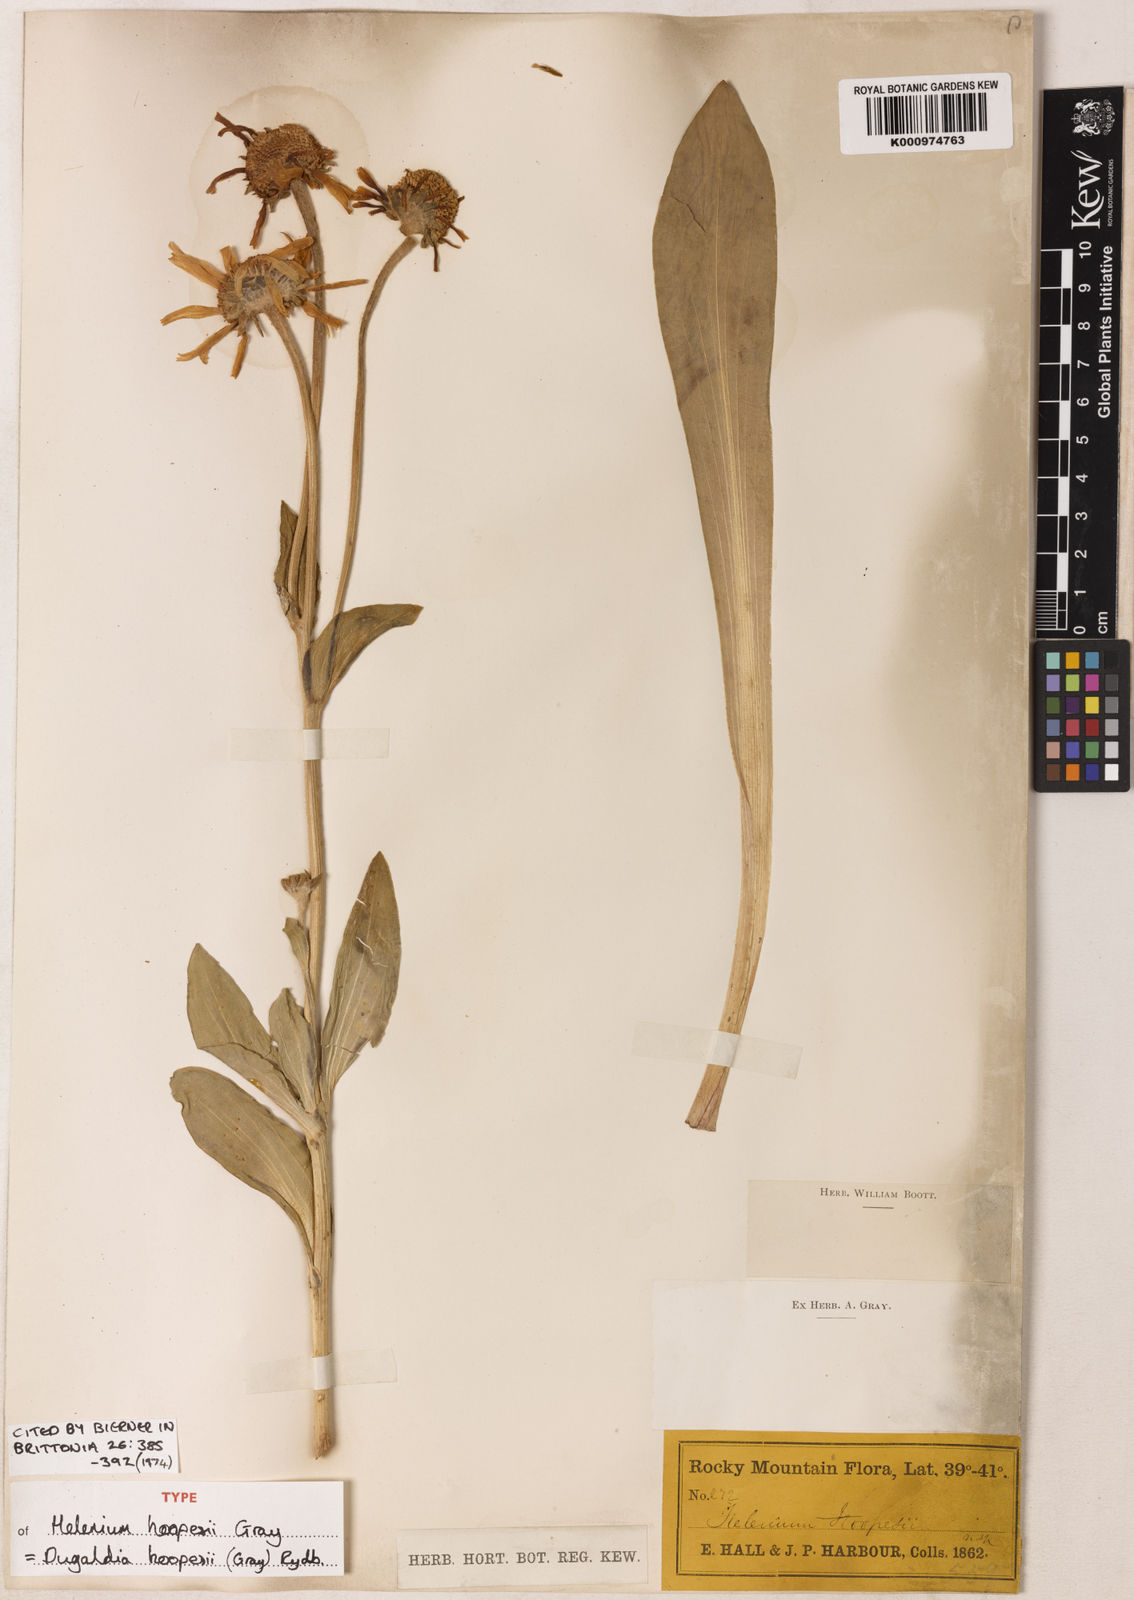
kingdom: Plantae
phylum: Tracheophyta
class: Magnoliopsida
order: Asterales
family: Asteraceae
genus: Hymenoxys
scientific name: Hymenoxys hoopesii
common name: Orange-sneezeweed
